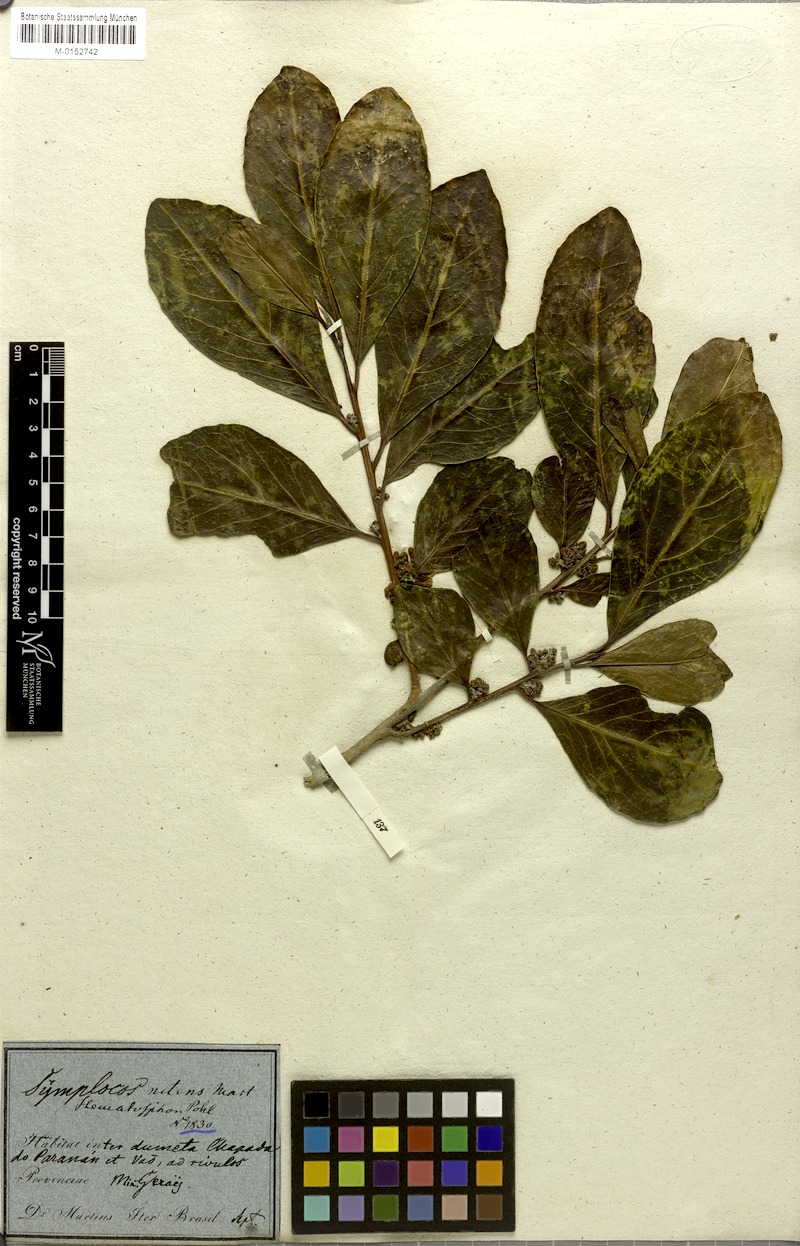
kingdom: Plantae
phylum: Tracheophyta
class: Magnoliopsida
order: Ericales
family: Symplocaceae
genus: Symplocos
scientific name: Symplocos nitens
